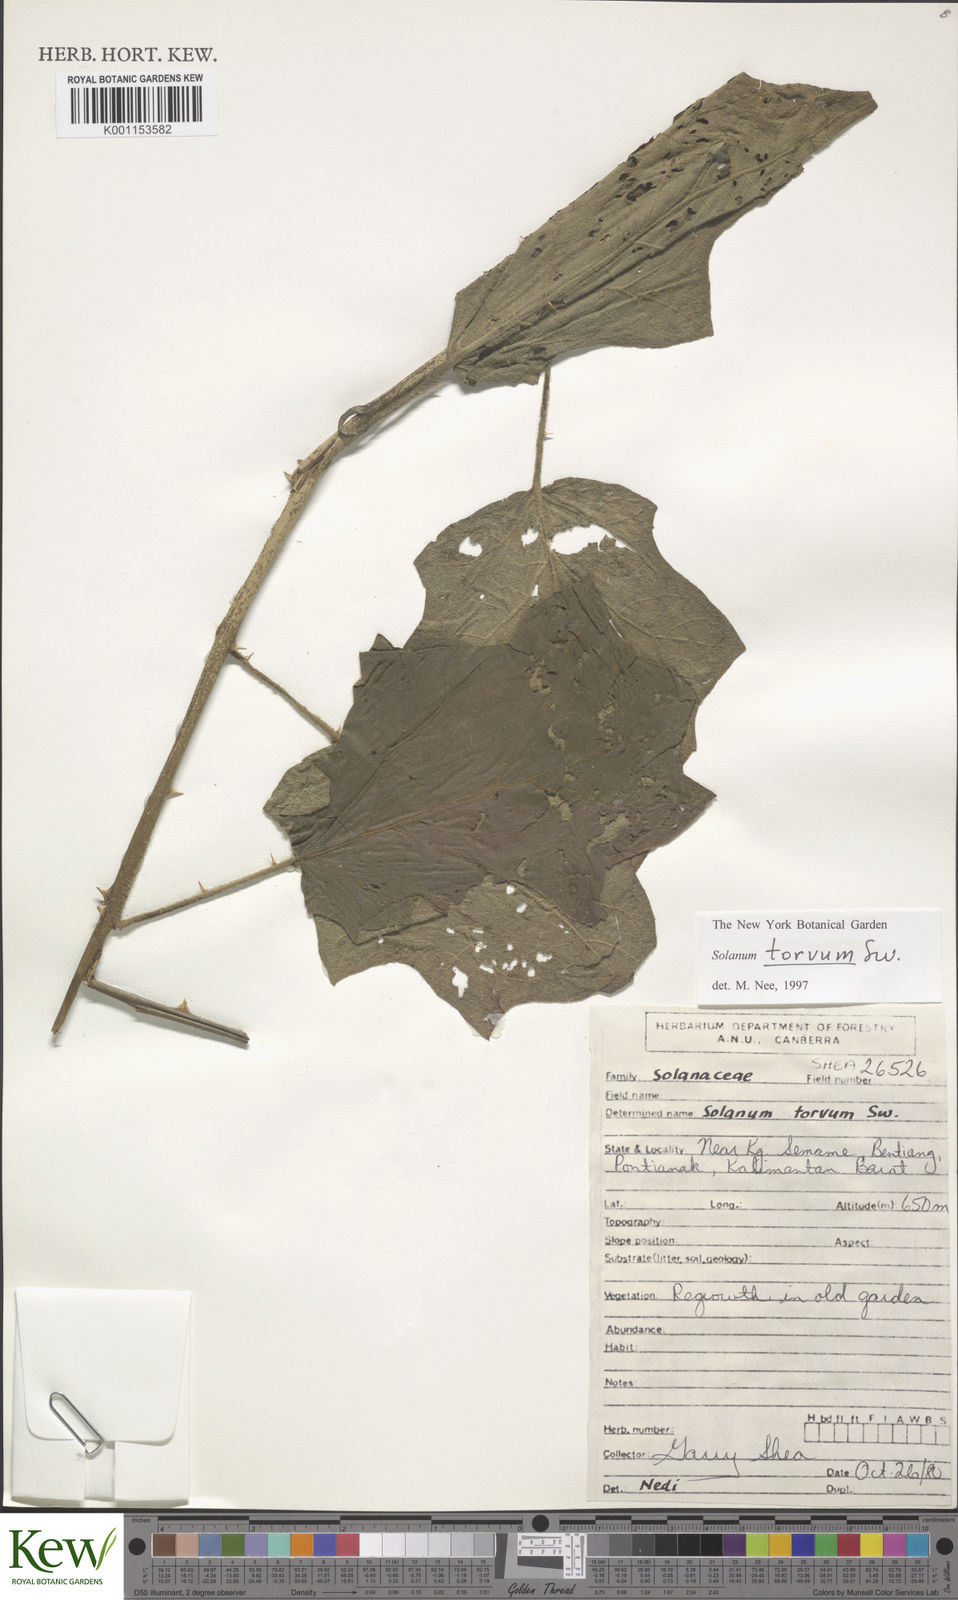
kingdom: Plantae
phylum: Tracheophyta
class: Magnoliopsida
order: Solanales
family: Solanaceae
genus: Solanum
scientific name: Solanum torvum
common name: Turkey berry
